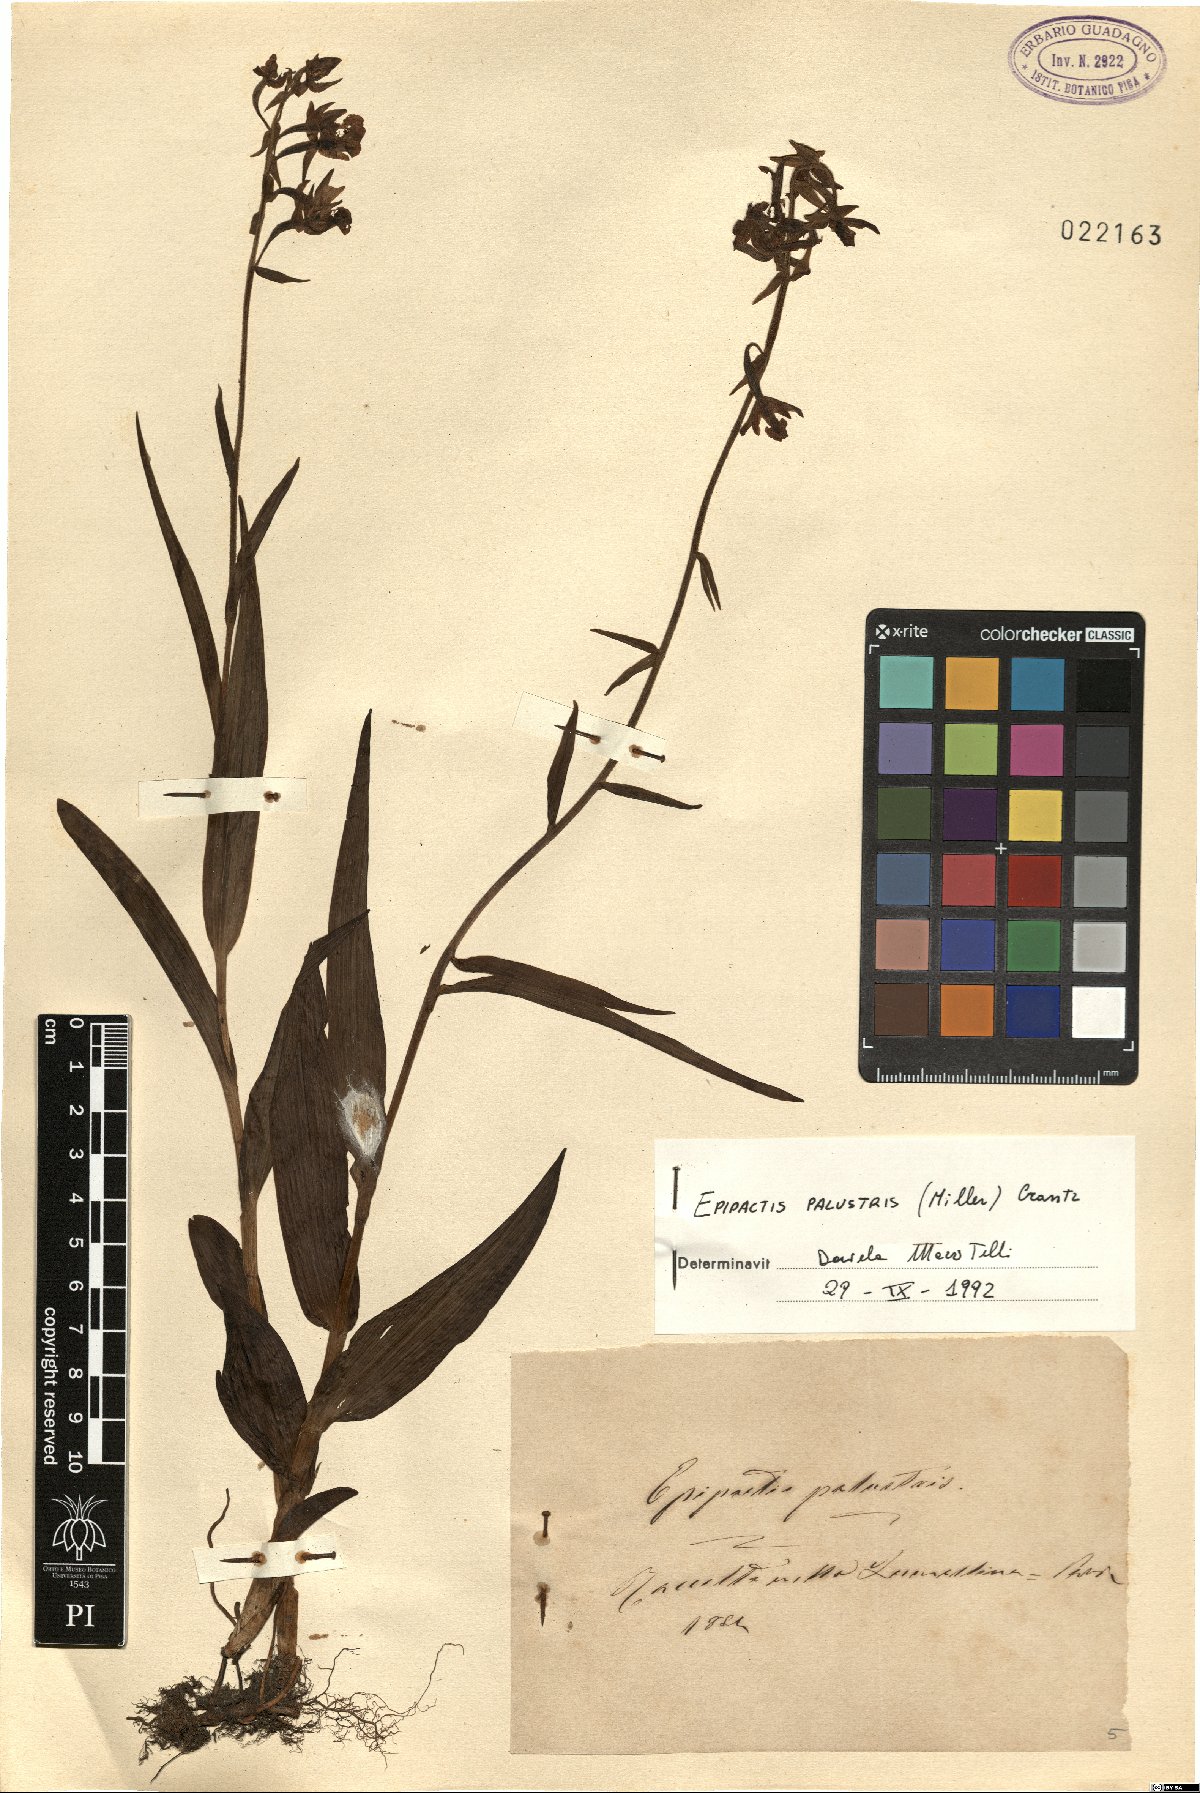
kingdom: Plantae
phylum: Tracheophyta
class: Liliopsida
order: Asparagales
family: Orchidaceae
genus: Epipactis
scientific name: Epipactis palustris
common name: Marsh helleborine
